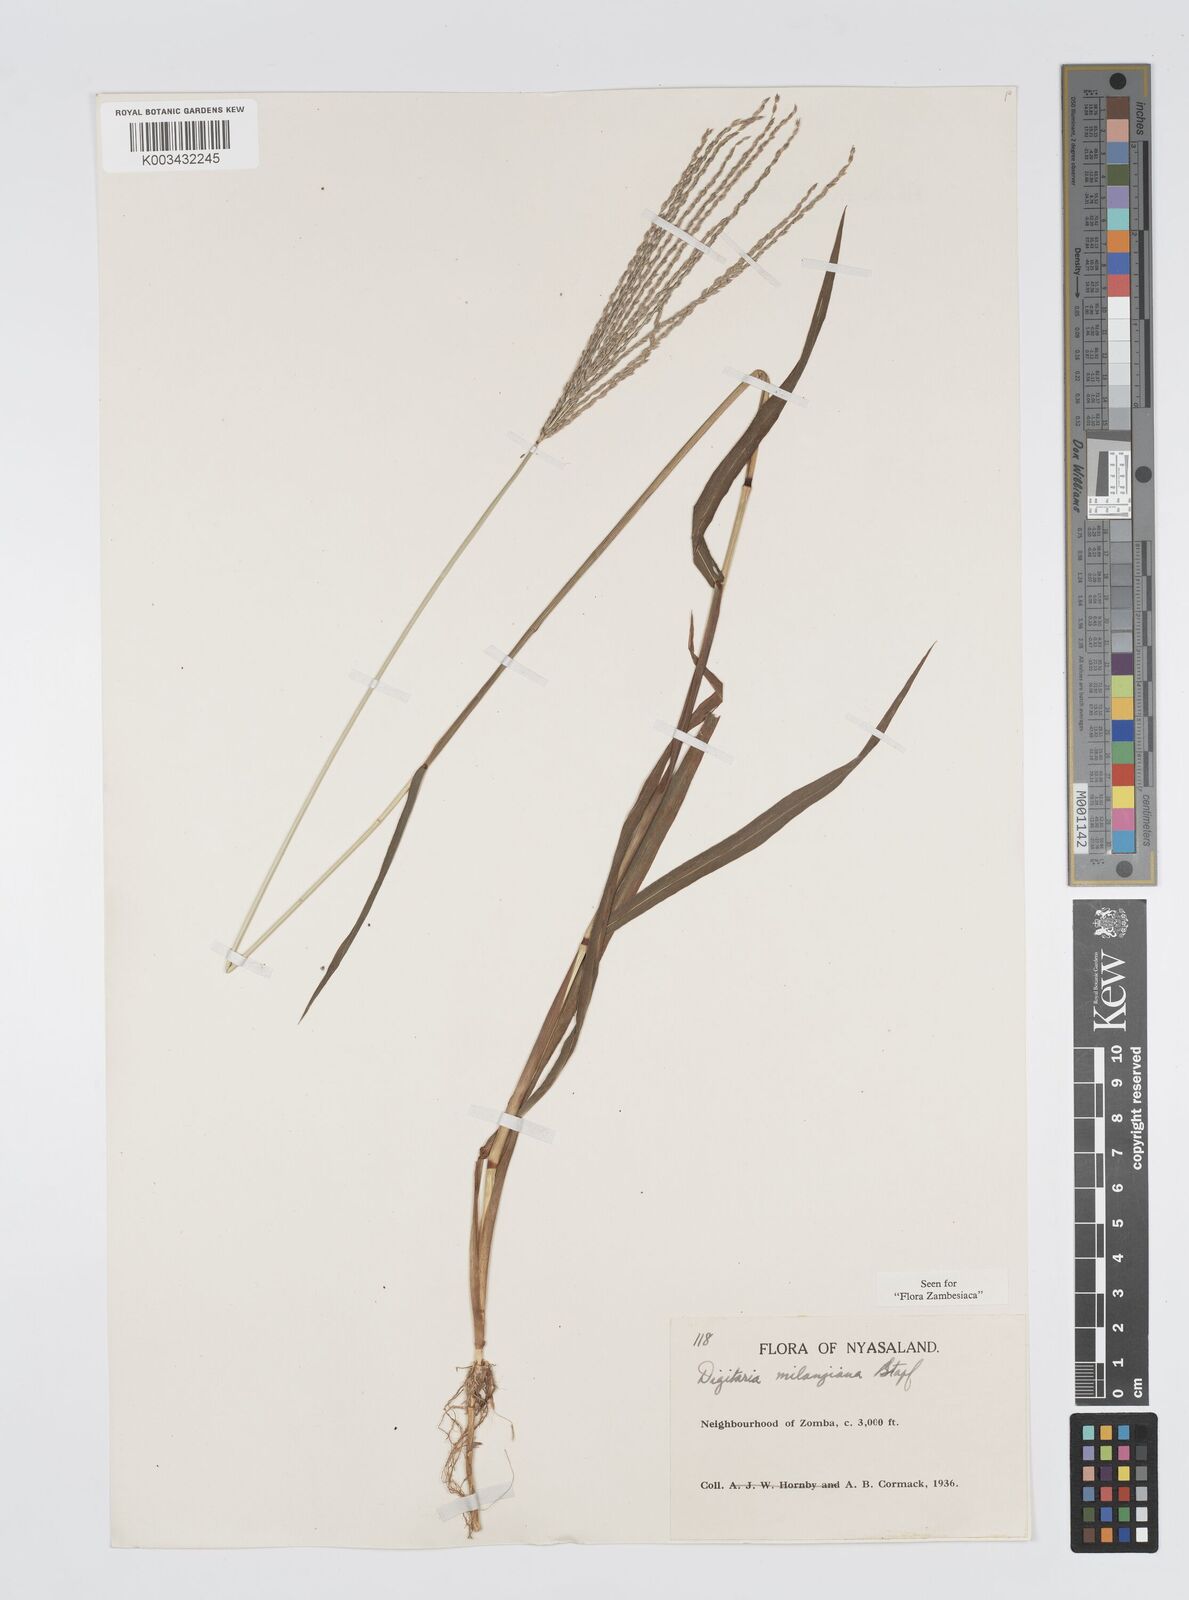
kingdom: Plantae
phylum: Tracheophyta
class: Liliopsida
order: Poales
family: Poaceae
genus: Digitaria
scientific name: Digitaria milanjiana
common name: Madagascar crabgrass
